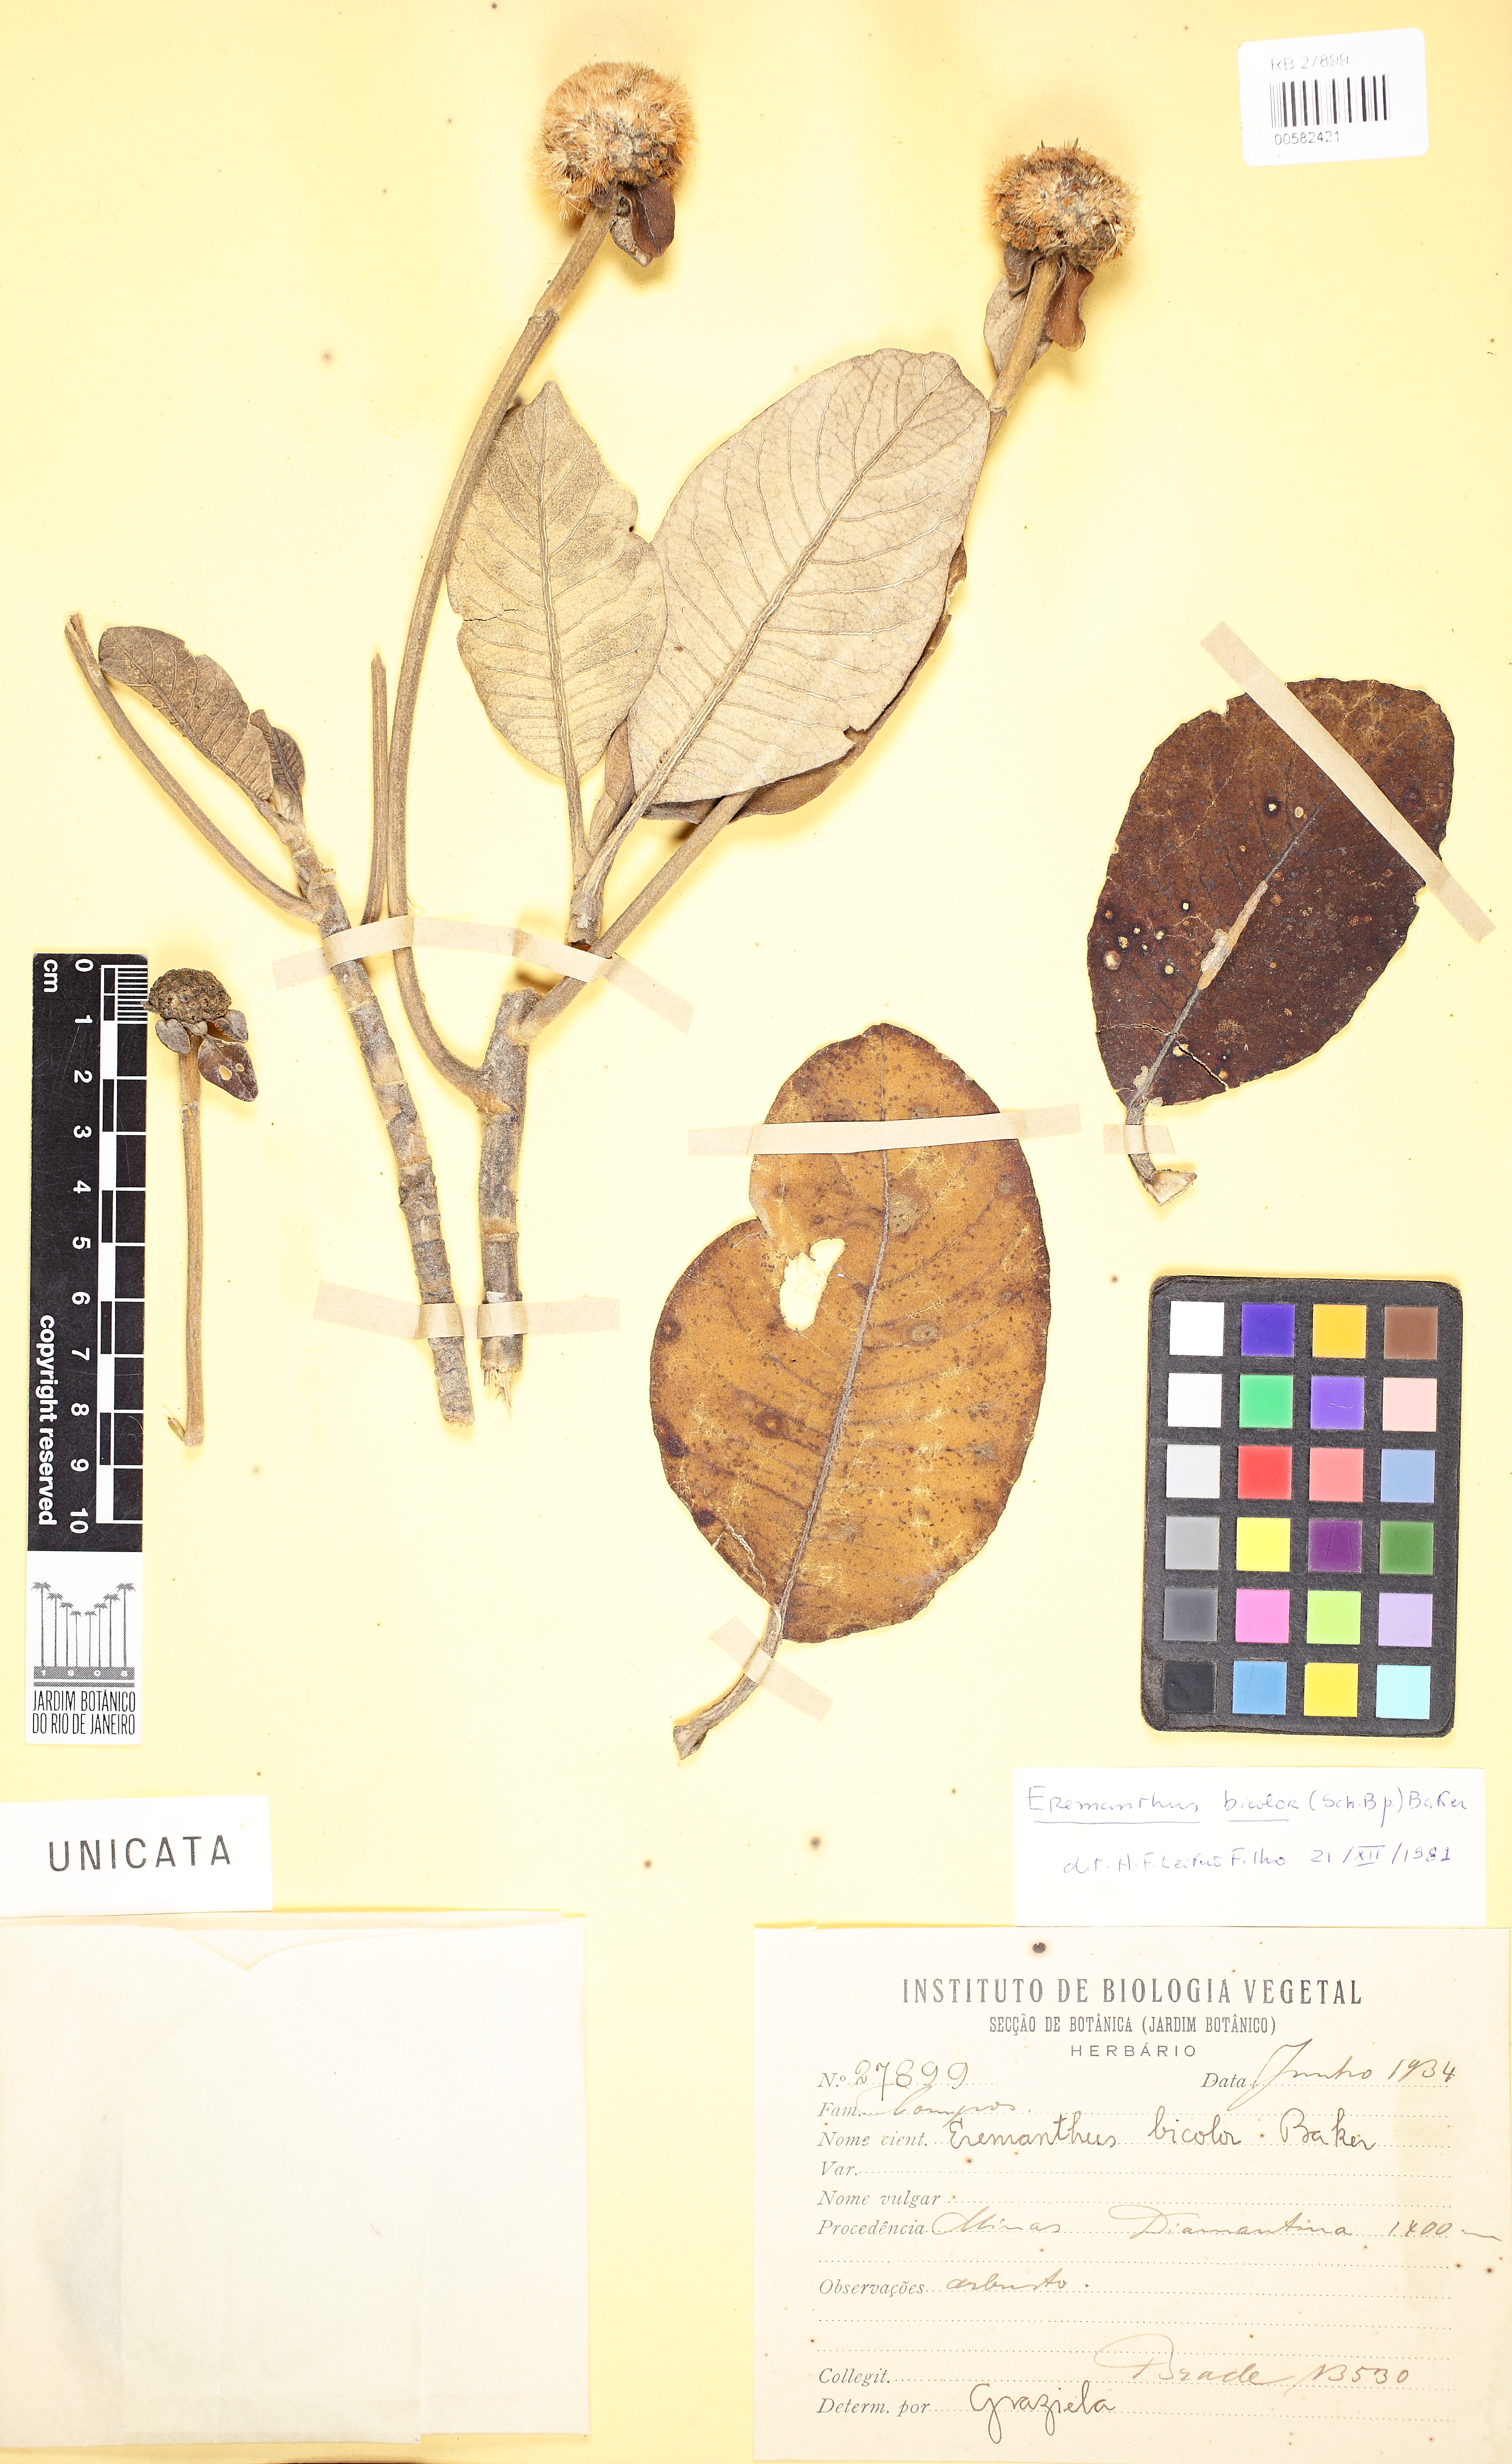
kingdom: Plantae
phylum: Tracheophyta
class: Magnoliopsida
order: Asterales
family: Asteraceae
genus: Paralychnophora
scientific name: Paralychnophora bicolor
